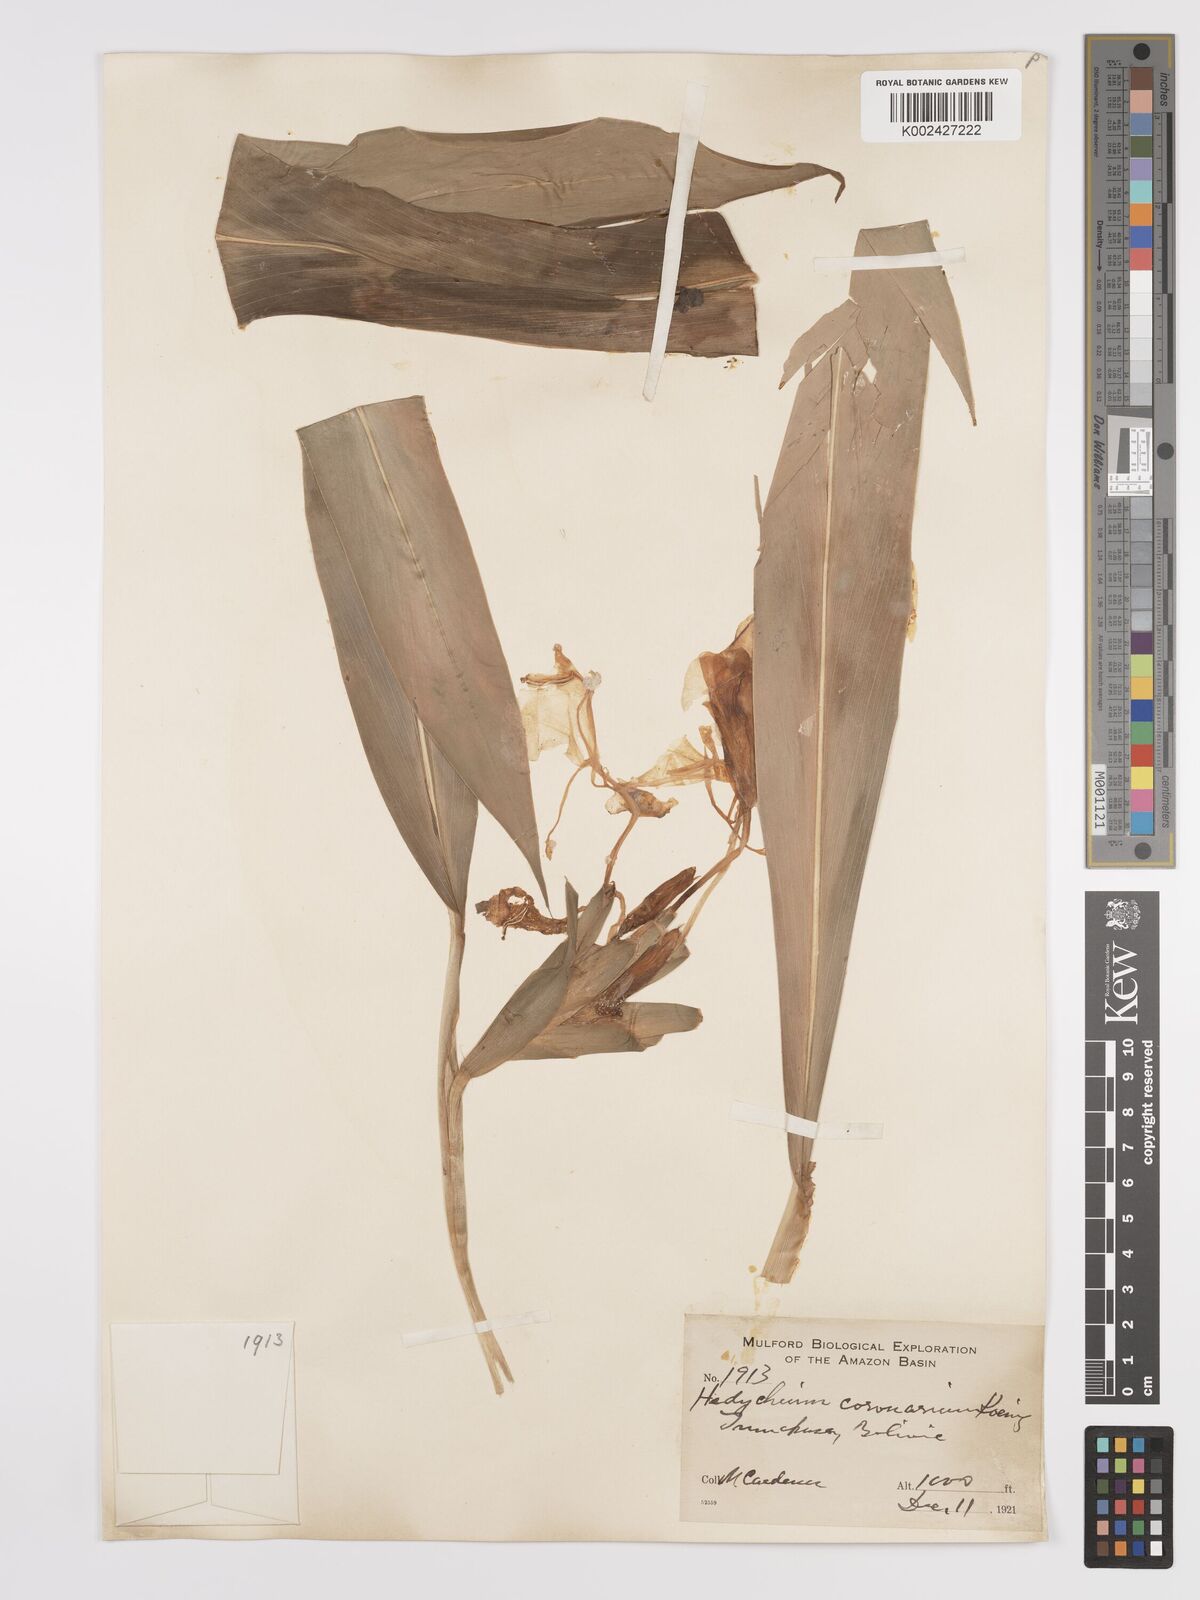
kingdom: Plantae
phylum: Tracheophyta
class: Liliopsida
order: Zingiberales
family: Zingiberaceae
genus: Hedychium
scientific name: Hedychium coronarium
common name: White garland-lily
